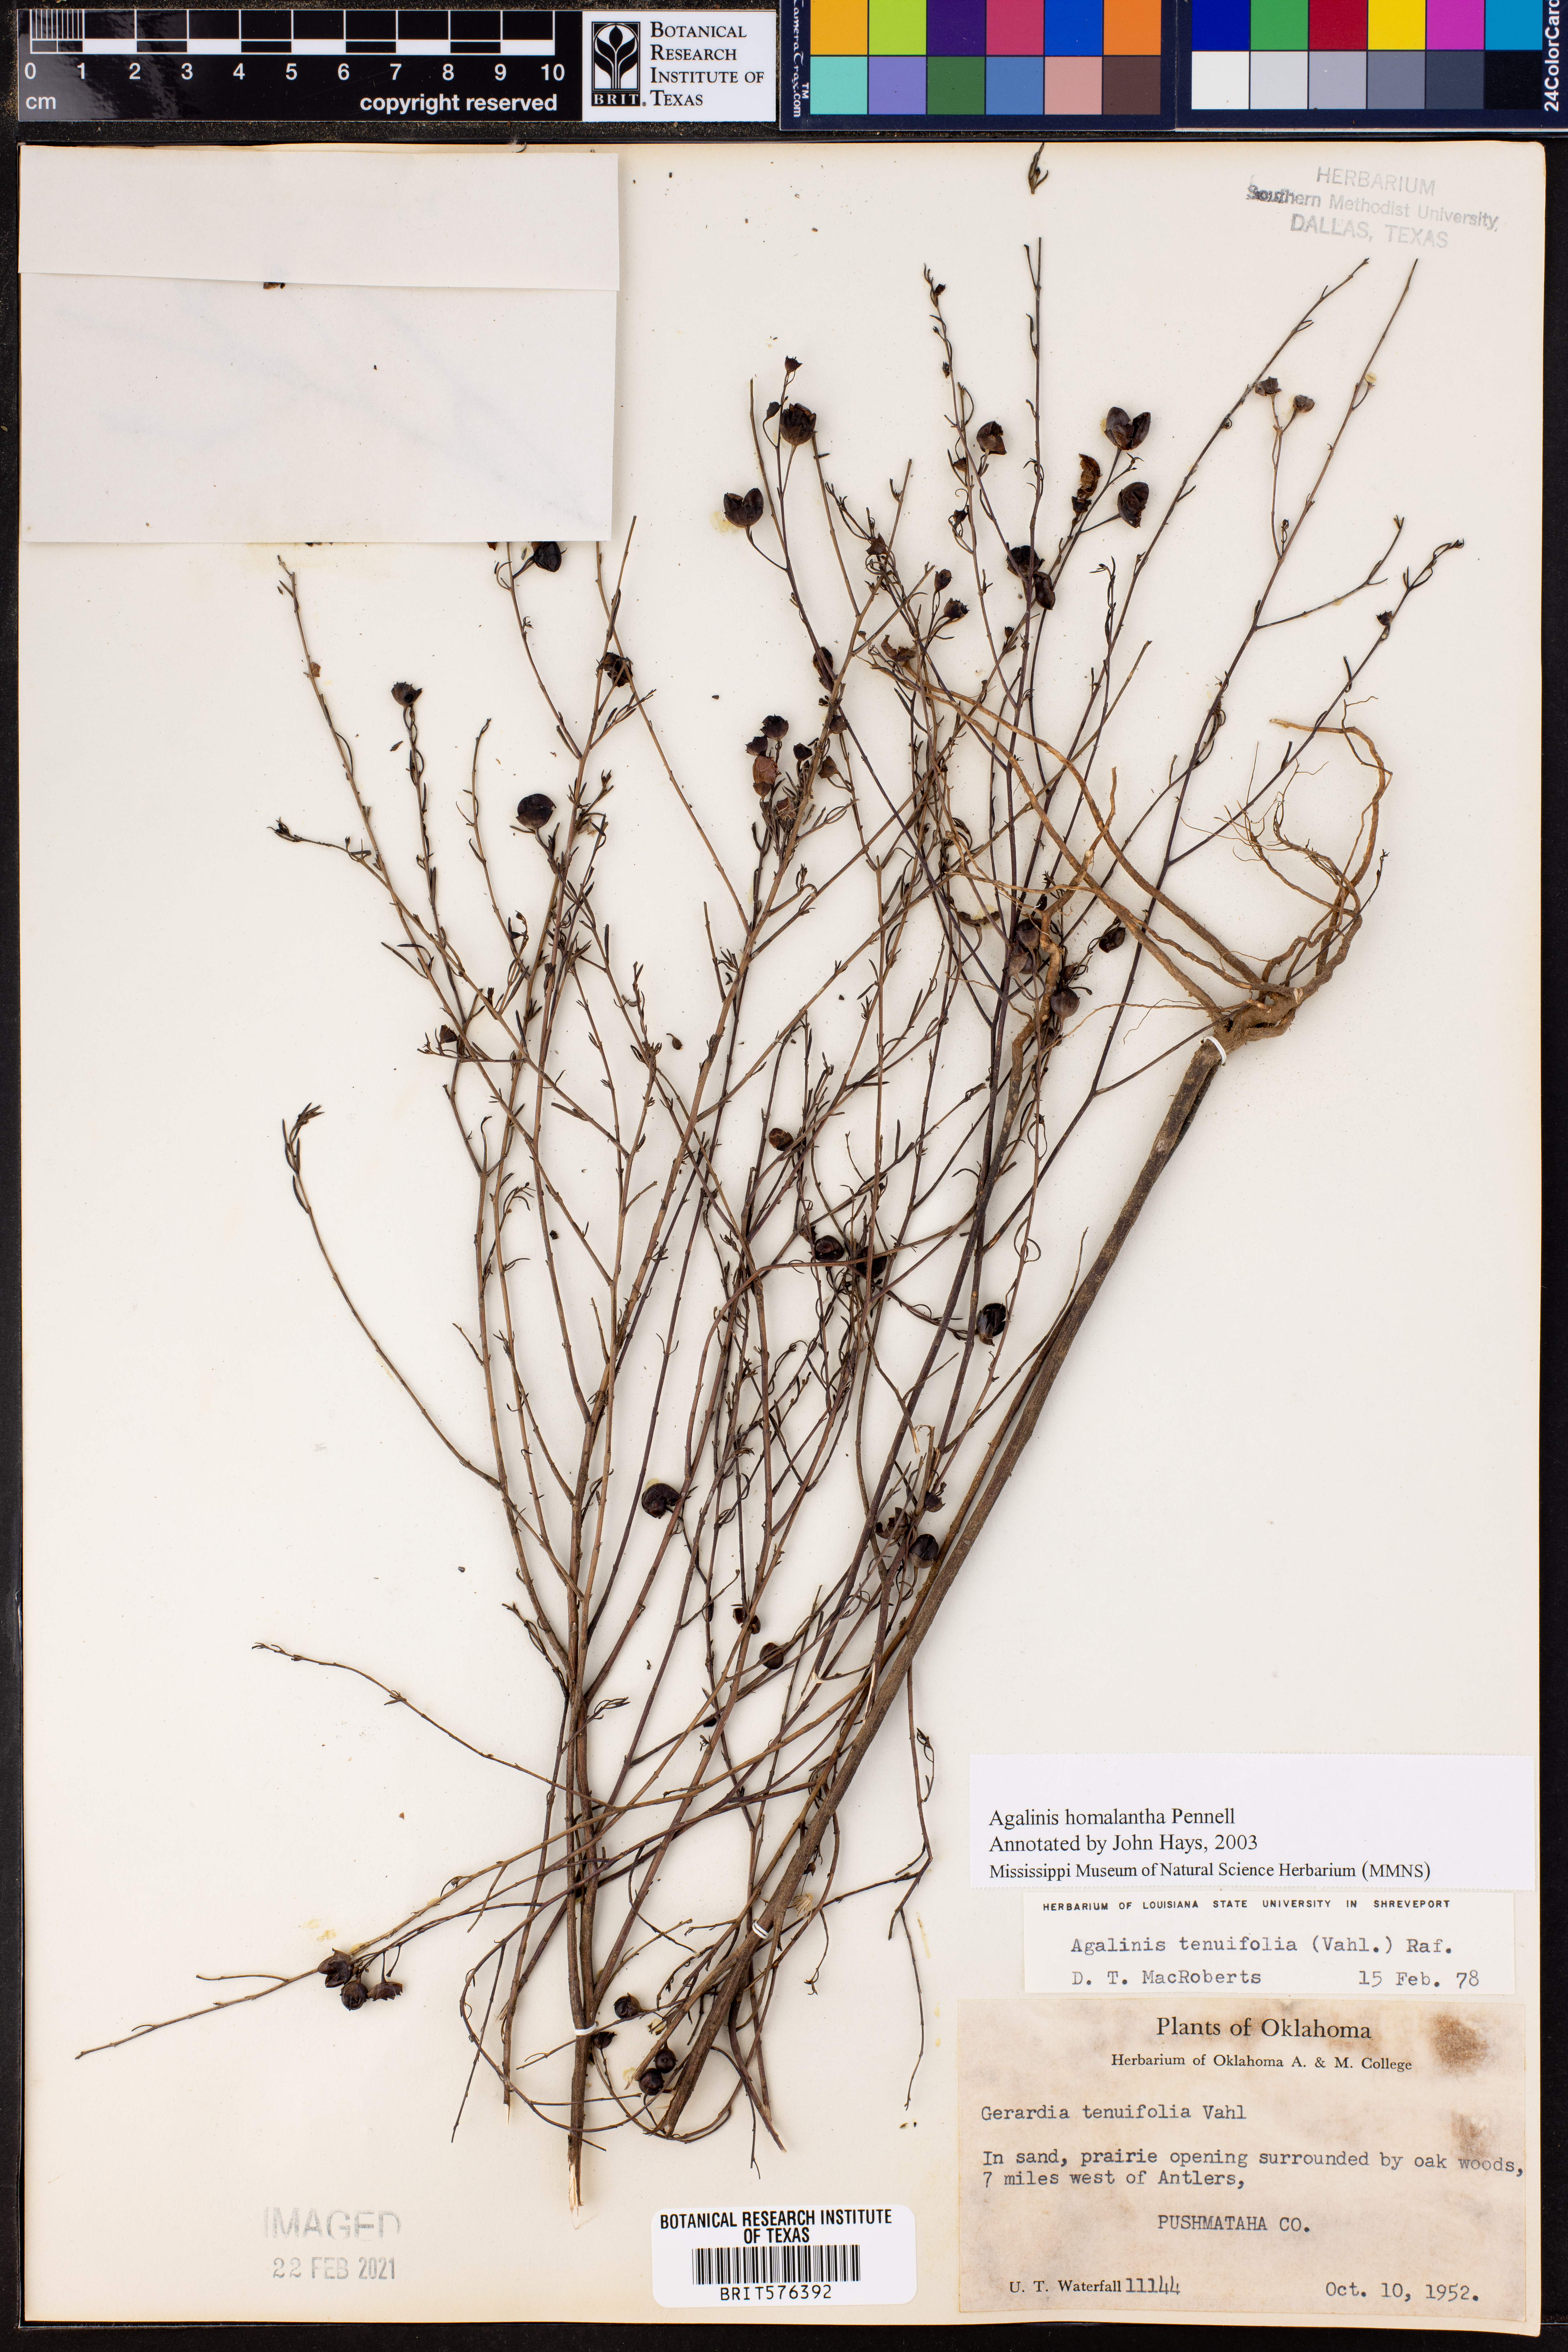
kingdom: Plantae
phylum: Tracheophyta
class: Magnoliopsida
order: Lamiales
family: Orobanchaceae
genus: Agalinis
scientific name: Agalinis heterophylla
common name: Prairie agalinis
